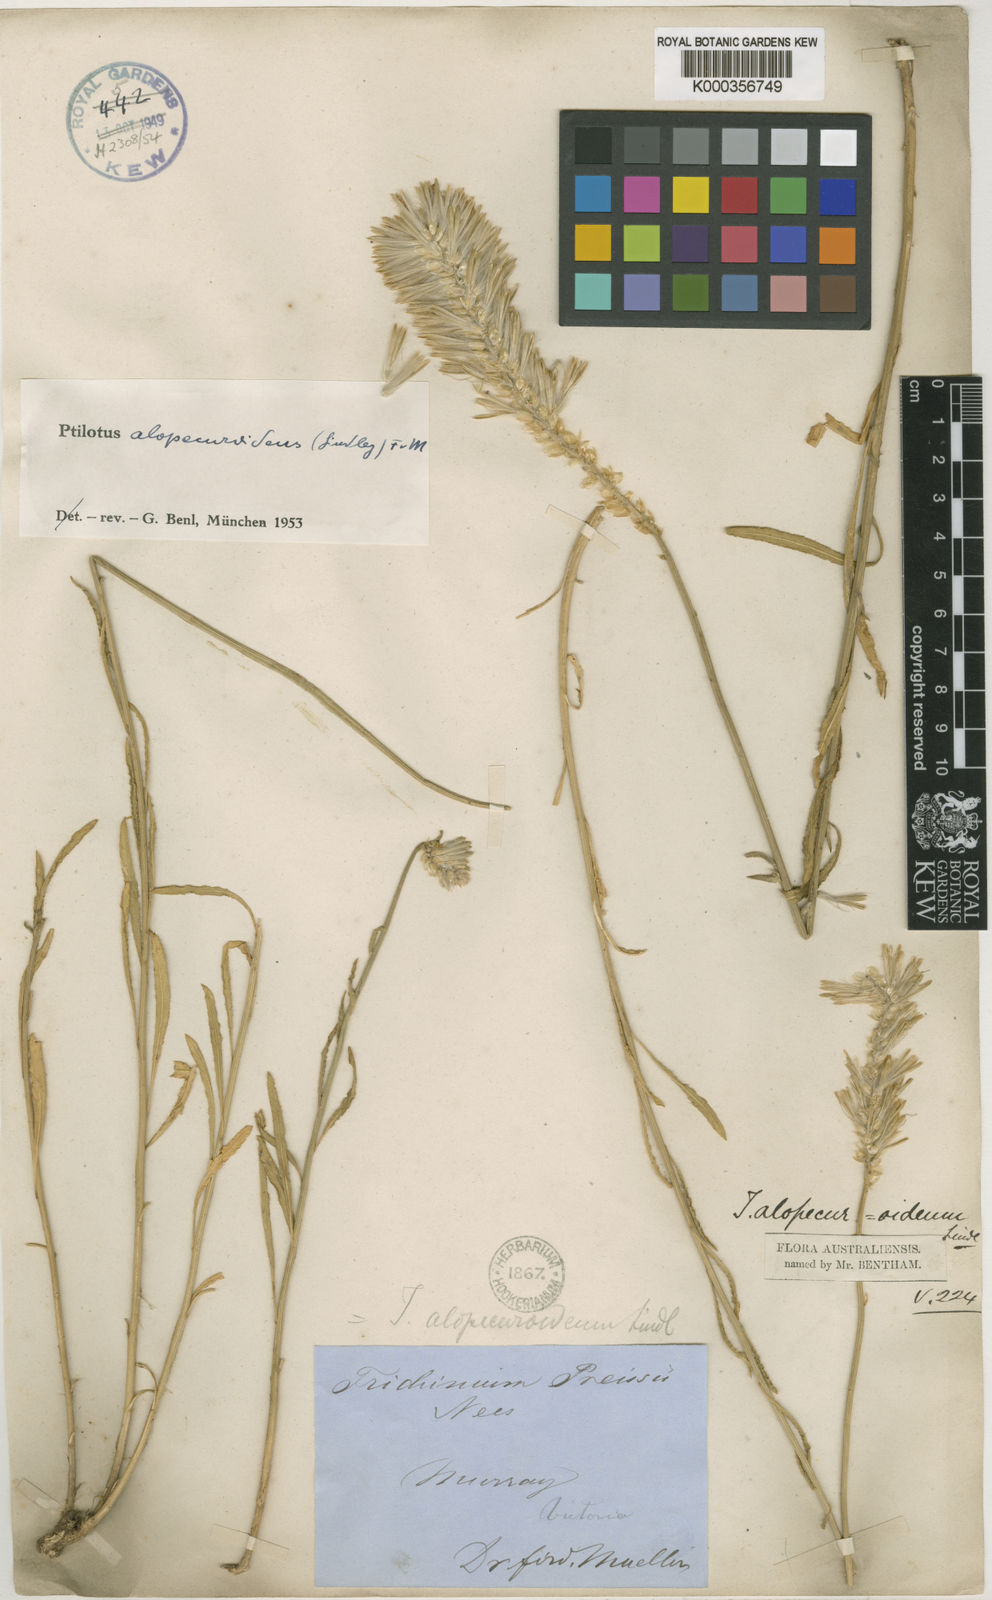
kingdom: Plantae
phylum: Tracheophyta
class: Magnoliopsida
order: Caryophyllales
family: Amaranthaceae
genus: Ptilotus
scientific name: Ptilotus polystachyus
